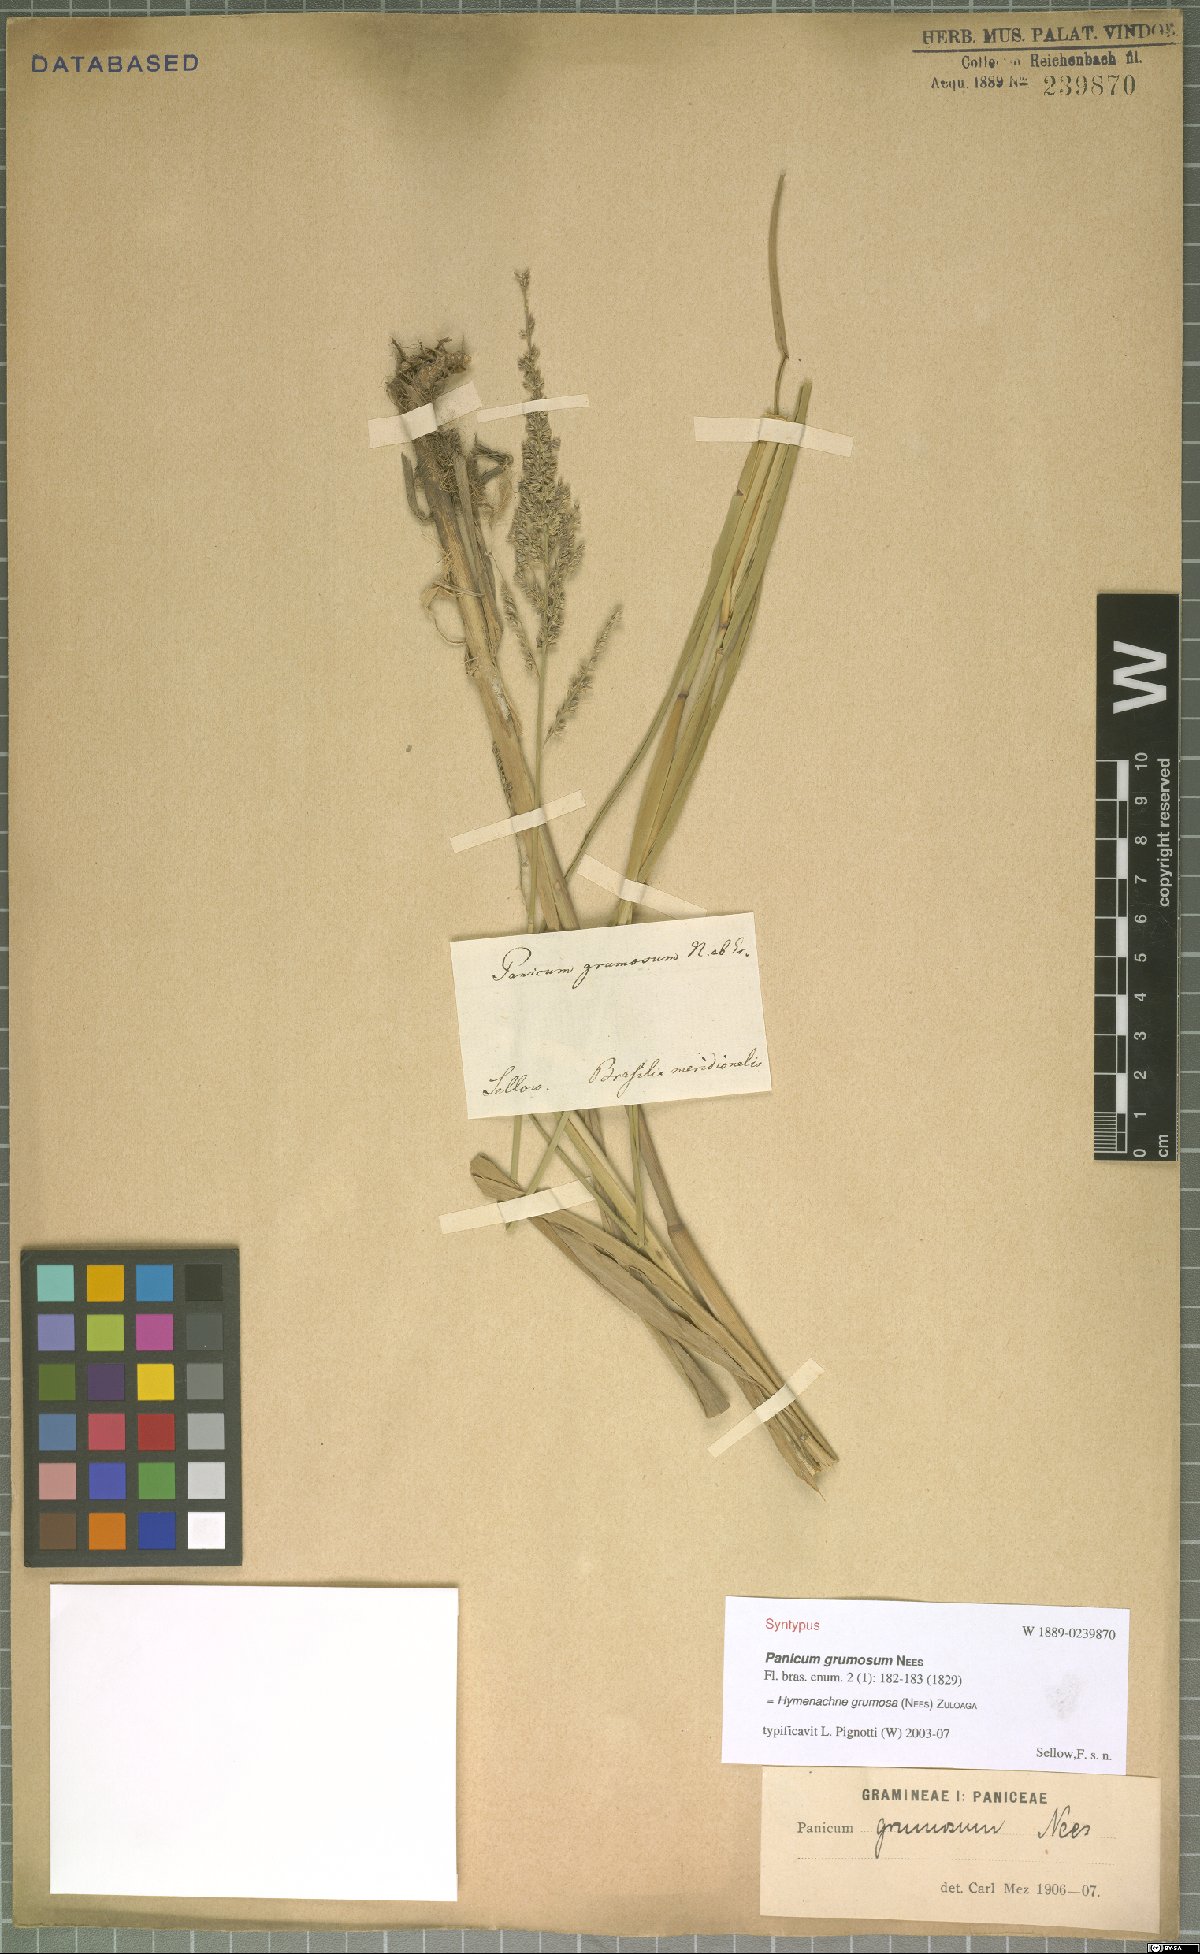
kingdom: Plantae
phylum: Tracheophyta
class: Liliopsida
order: Poales
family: Poaceae
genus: Hymenachne
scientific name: Hymenachne grumosa
